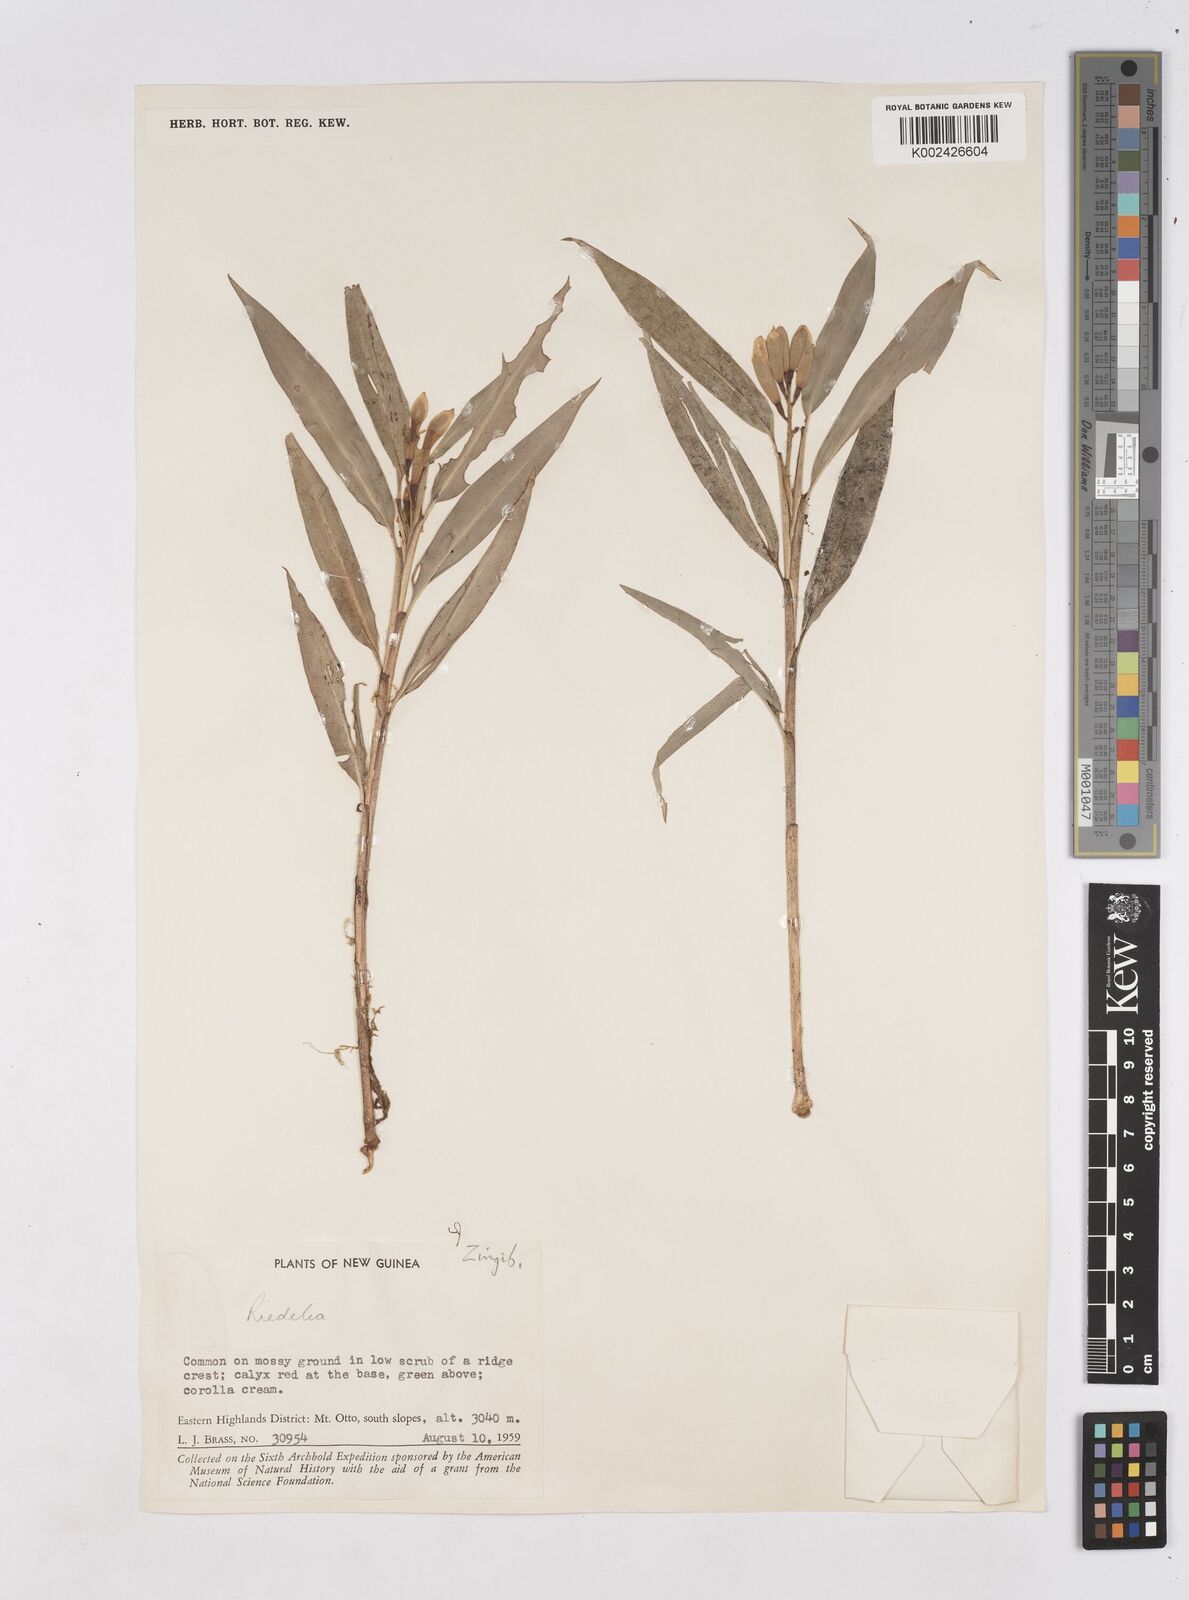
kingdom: Plantae
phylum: Tracheophyta
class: Liliopsida
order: Zingiberales
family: Zingiberaceae
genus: Riedelia
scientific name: Riedelia
